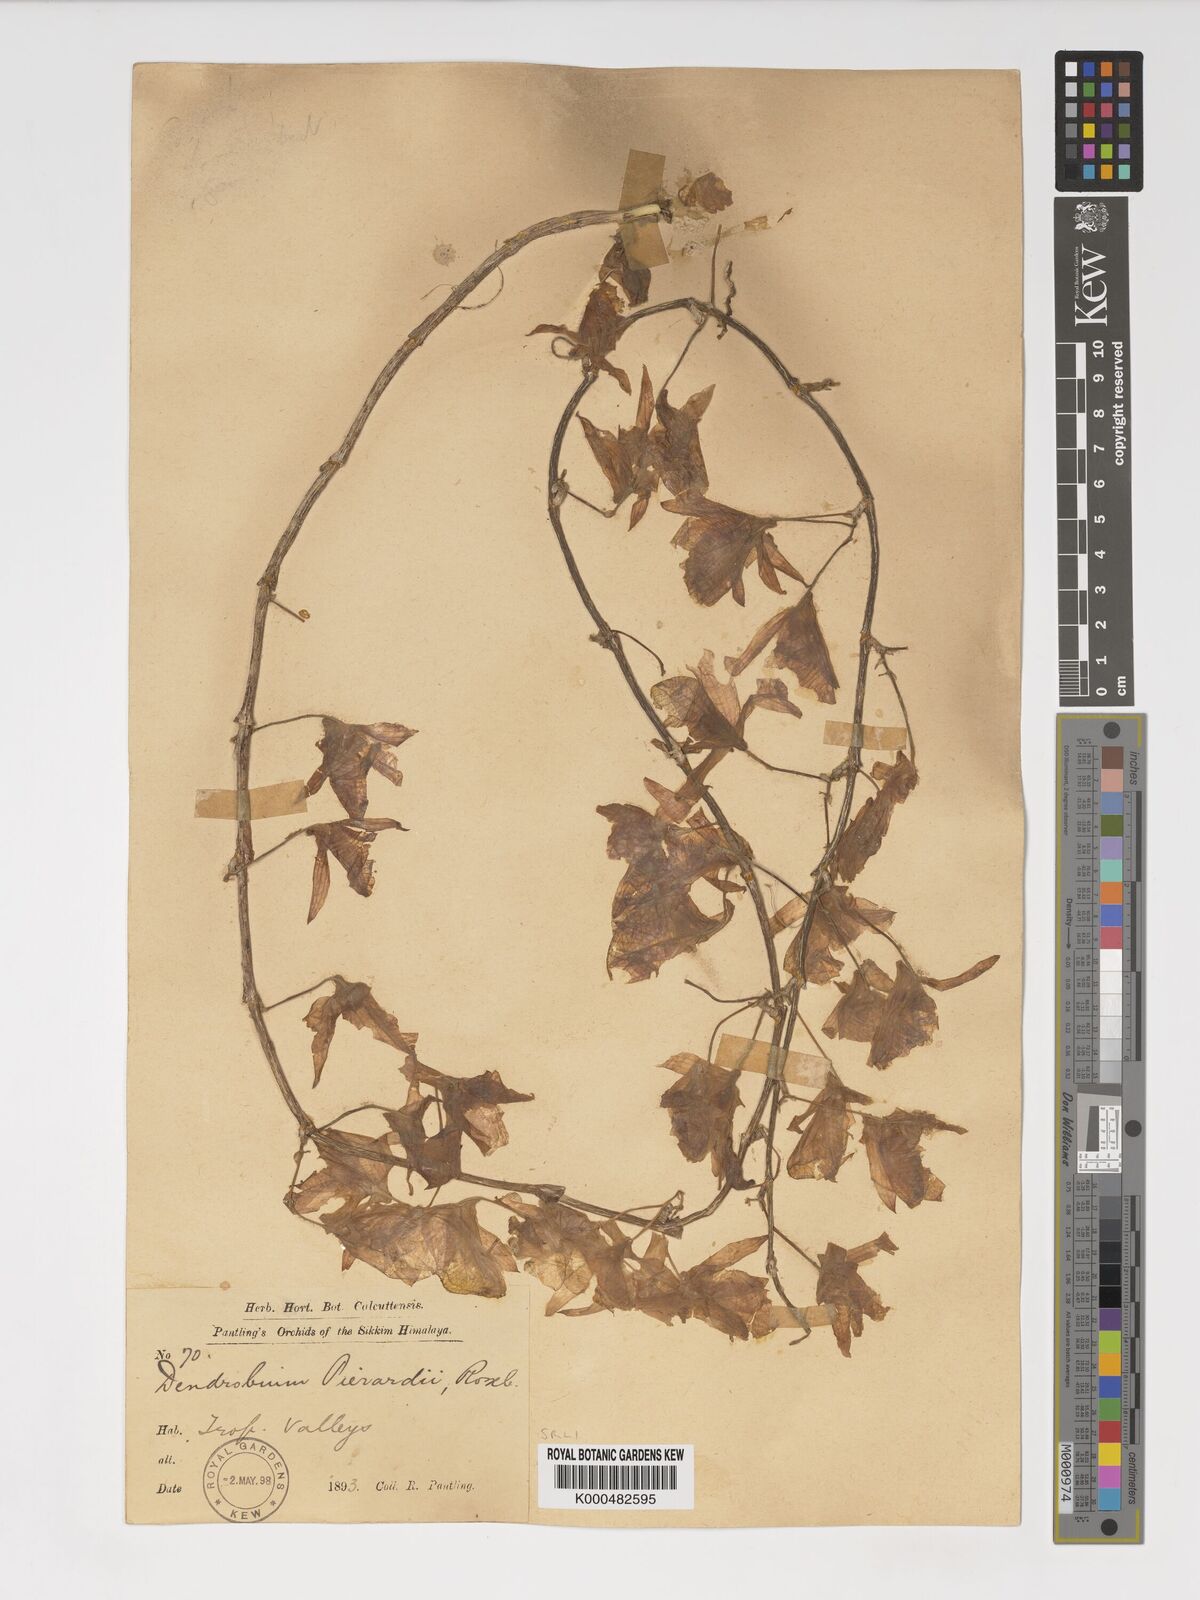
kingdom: Plantae
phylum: Tracheophyta
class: Liliopsida
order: Asparagales
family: Orchidaceae
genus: Dendrobium
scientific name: Dendrobium macrostachyum
